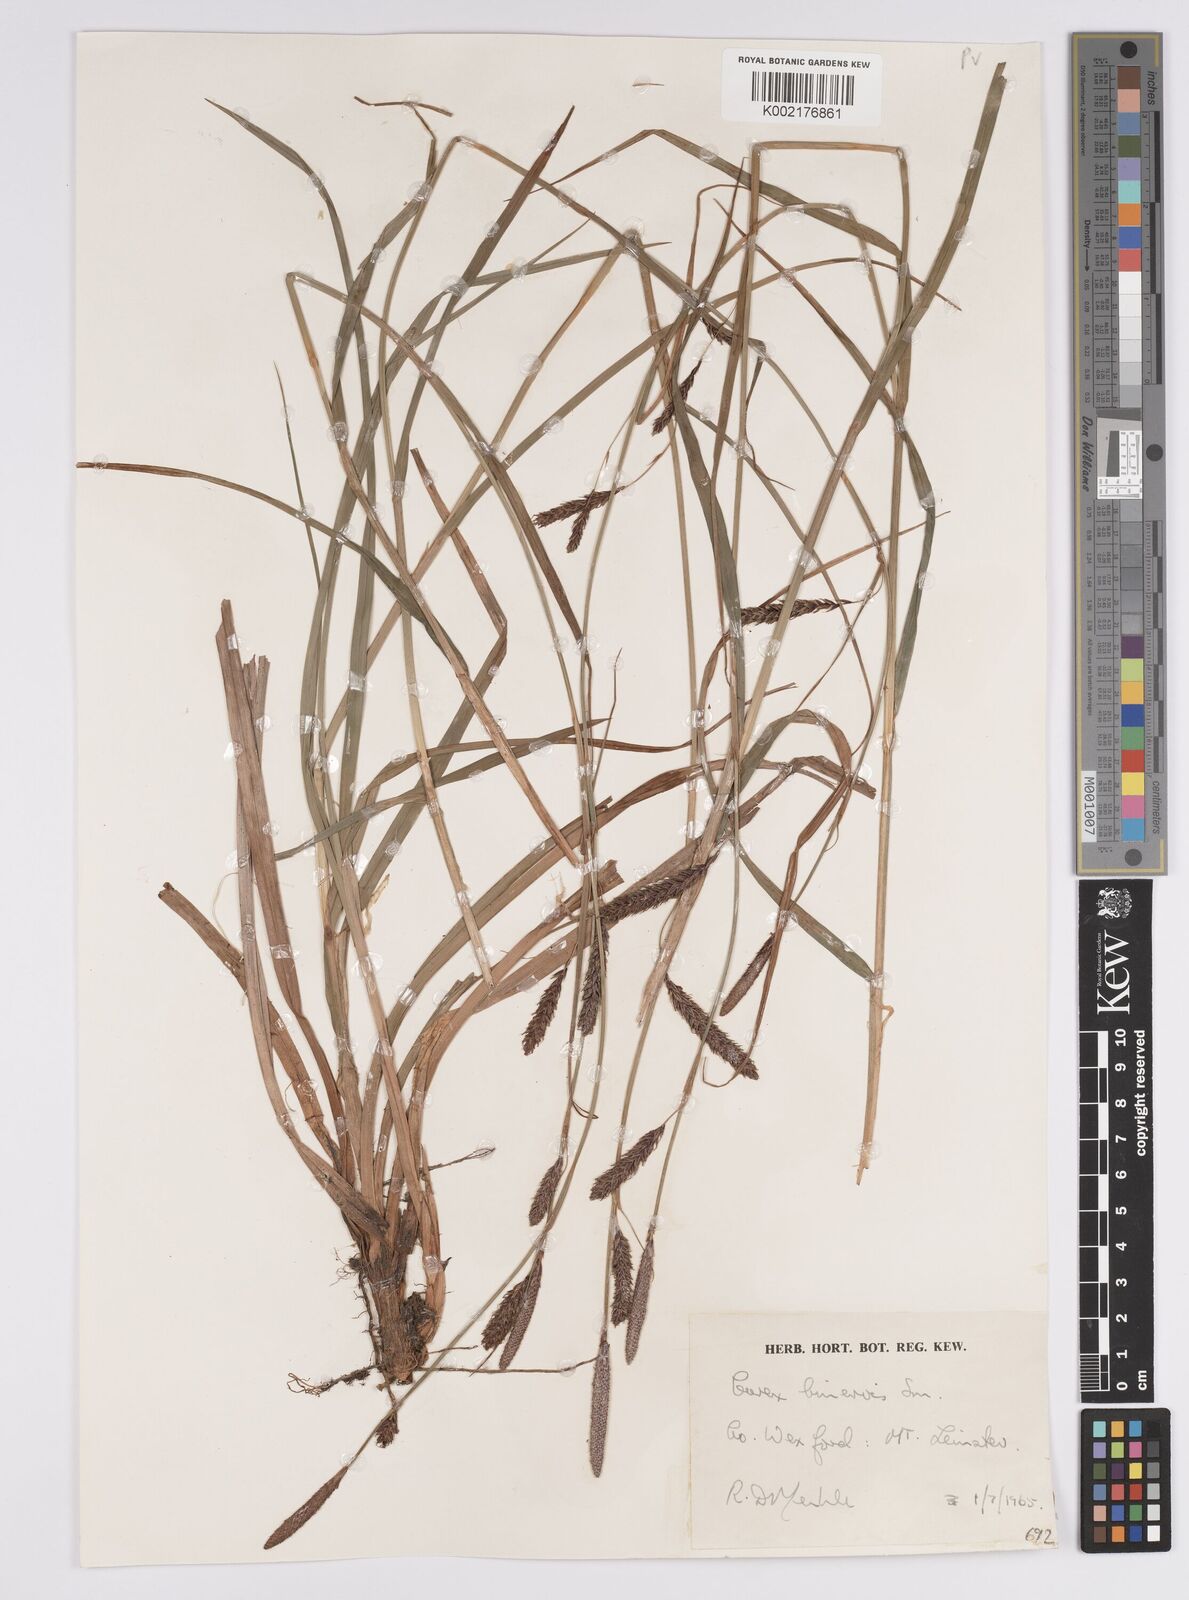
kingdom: Plantae
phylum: Tracheophyta
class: Liliopsida
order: Poales
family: Cyperaceae
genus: Carex
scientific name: Carex binervis
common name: Green-ribbed sedge
